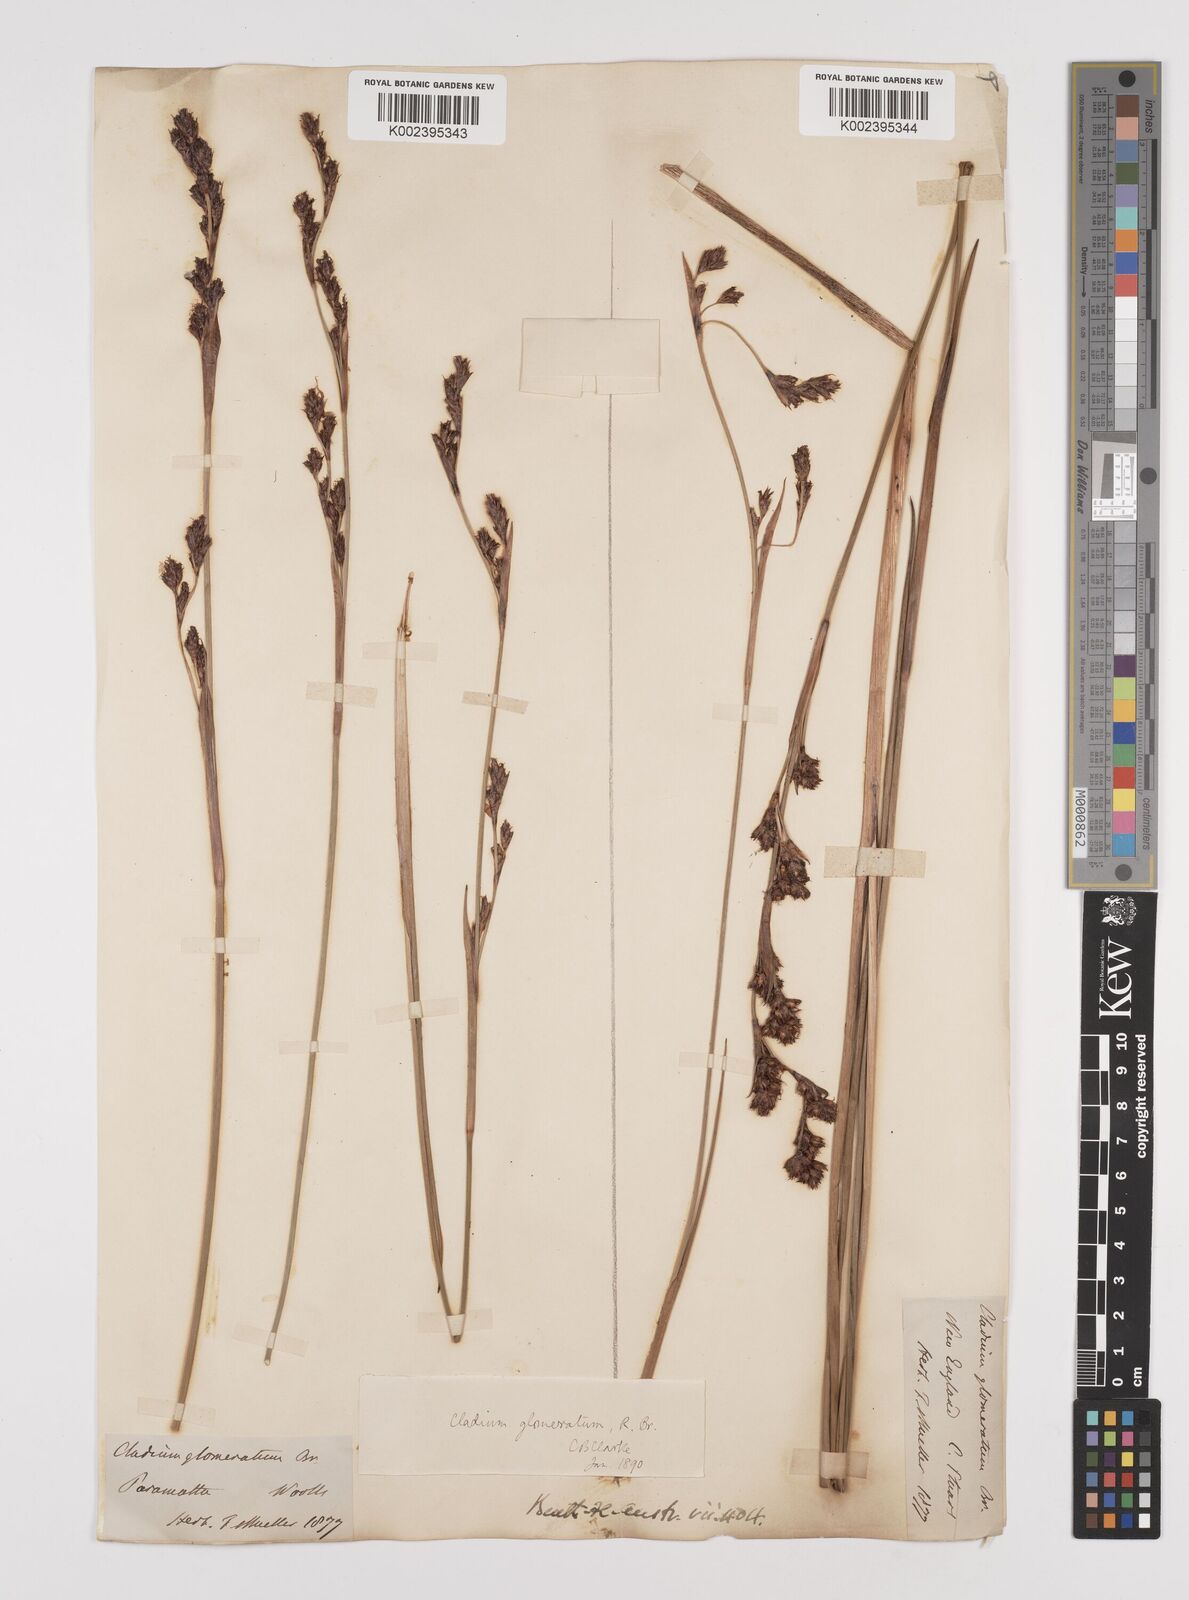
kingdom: Plantae
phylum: Tracheophyta
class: Liliopsida
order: Poales
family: Cyperaceae
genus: Machaerina
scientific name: Machaerina rubiginosa
